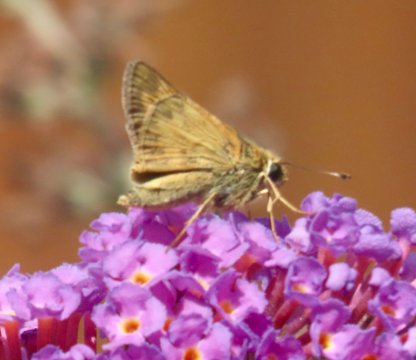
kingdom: Animalia
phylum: Arthropoda
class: Insecta
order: Lepidoptera
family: Hesperiidae
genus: Atalopedes
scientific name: Atalopedes campestris
